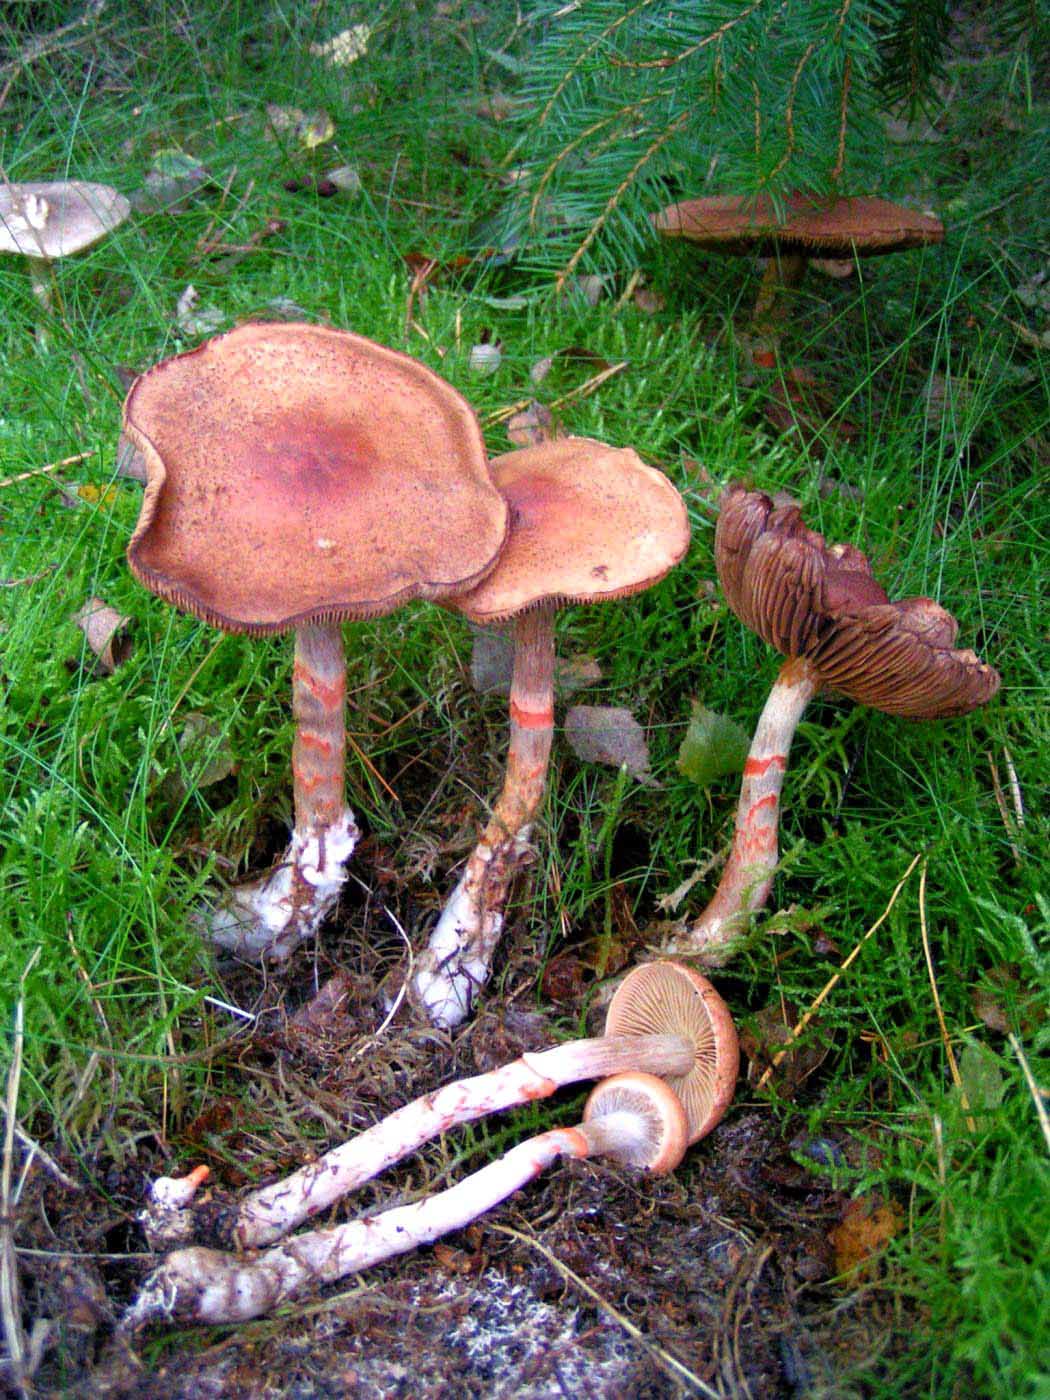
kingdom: Fungi
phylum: Basidiomycota
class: Agaricomycetes
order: Agaricales
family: Cortinariaceae
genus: Cortinarius
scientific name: Cortinarius armillatus
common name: cinnoberbæltet slørhat
